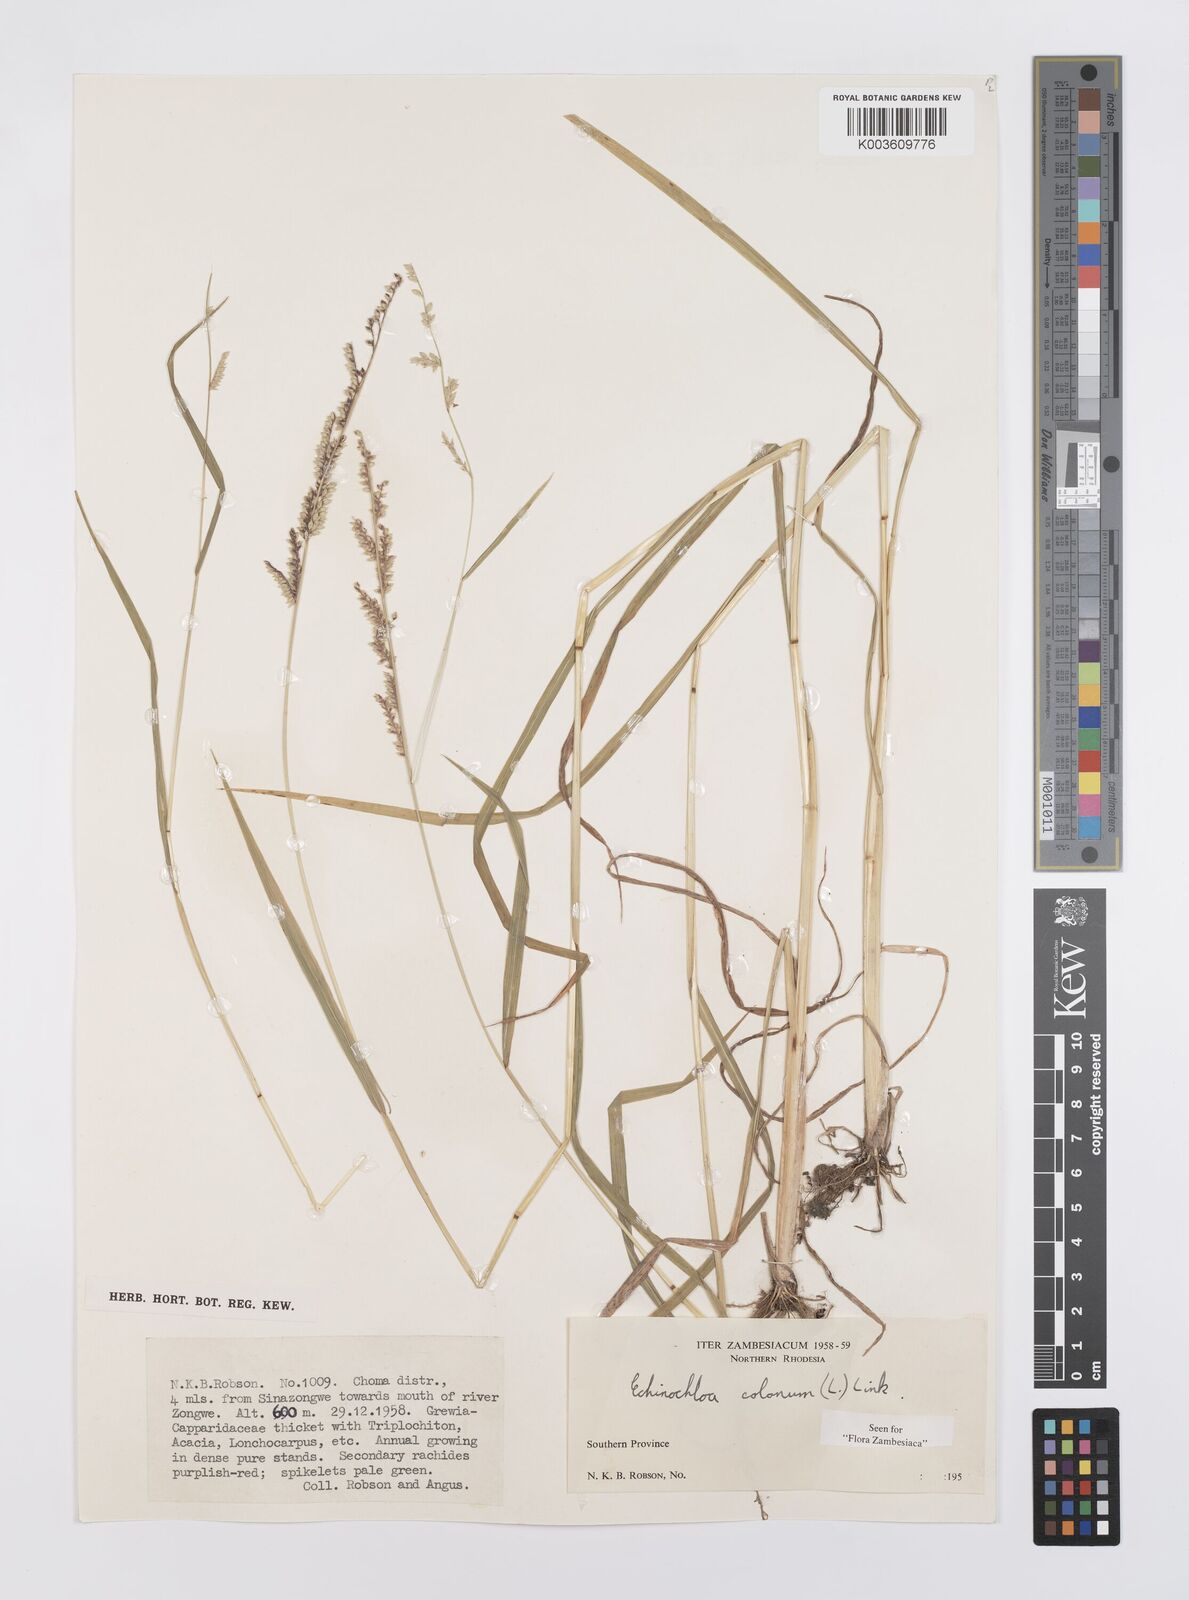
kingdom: Plantae
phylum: Tracheophyta
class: Liliopsida
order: Poales
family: Poaceae
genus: Echinochloa
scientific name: Echinochloa colonum
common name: Jungle rice
